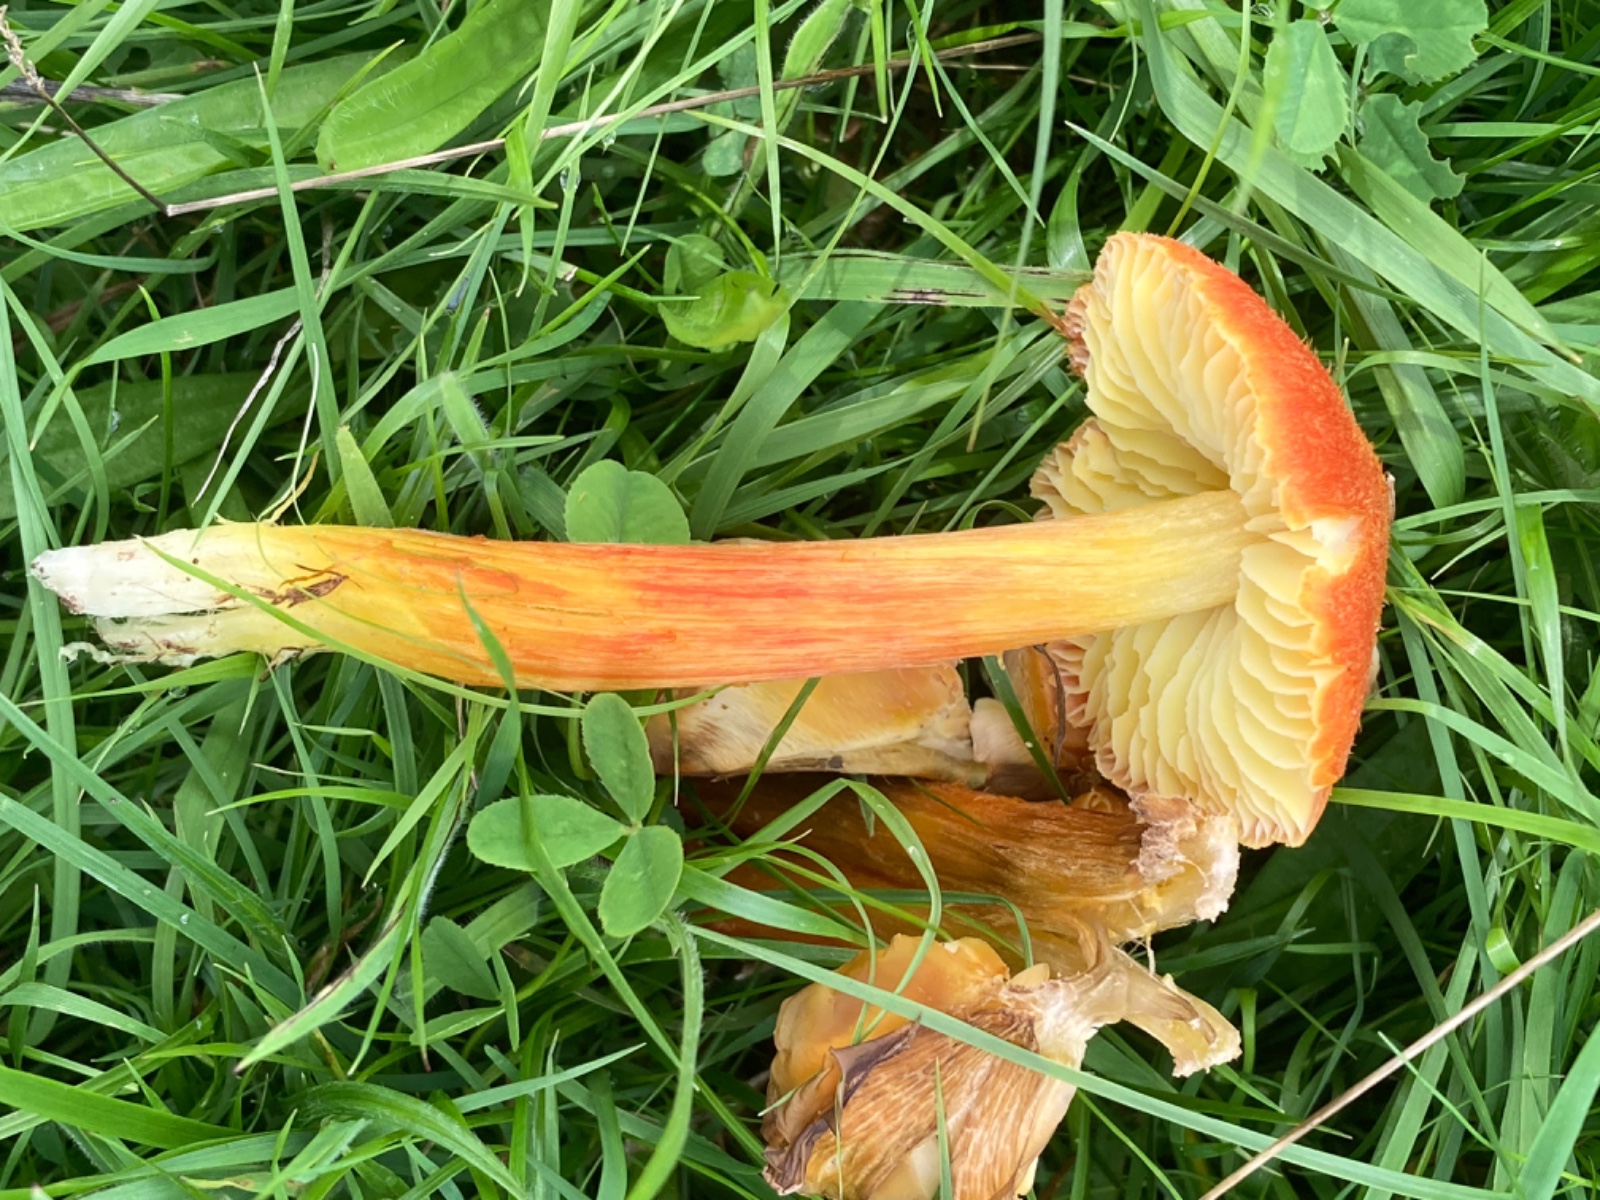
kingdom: Fungi
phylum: Basidiomycota
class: Agaricomycetes
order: Agaricales
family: Hygrophoraceae
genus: Hygrocybe
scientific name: Hygrocybe intermedia
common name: trævlet vokshat
